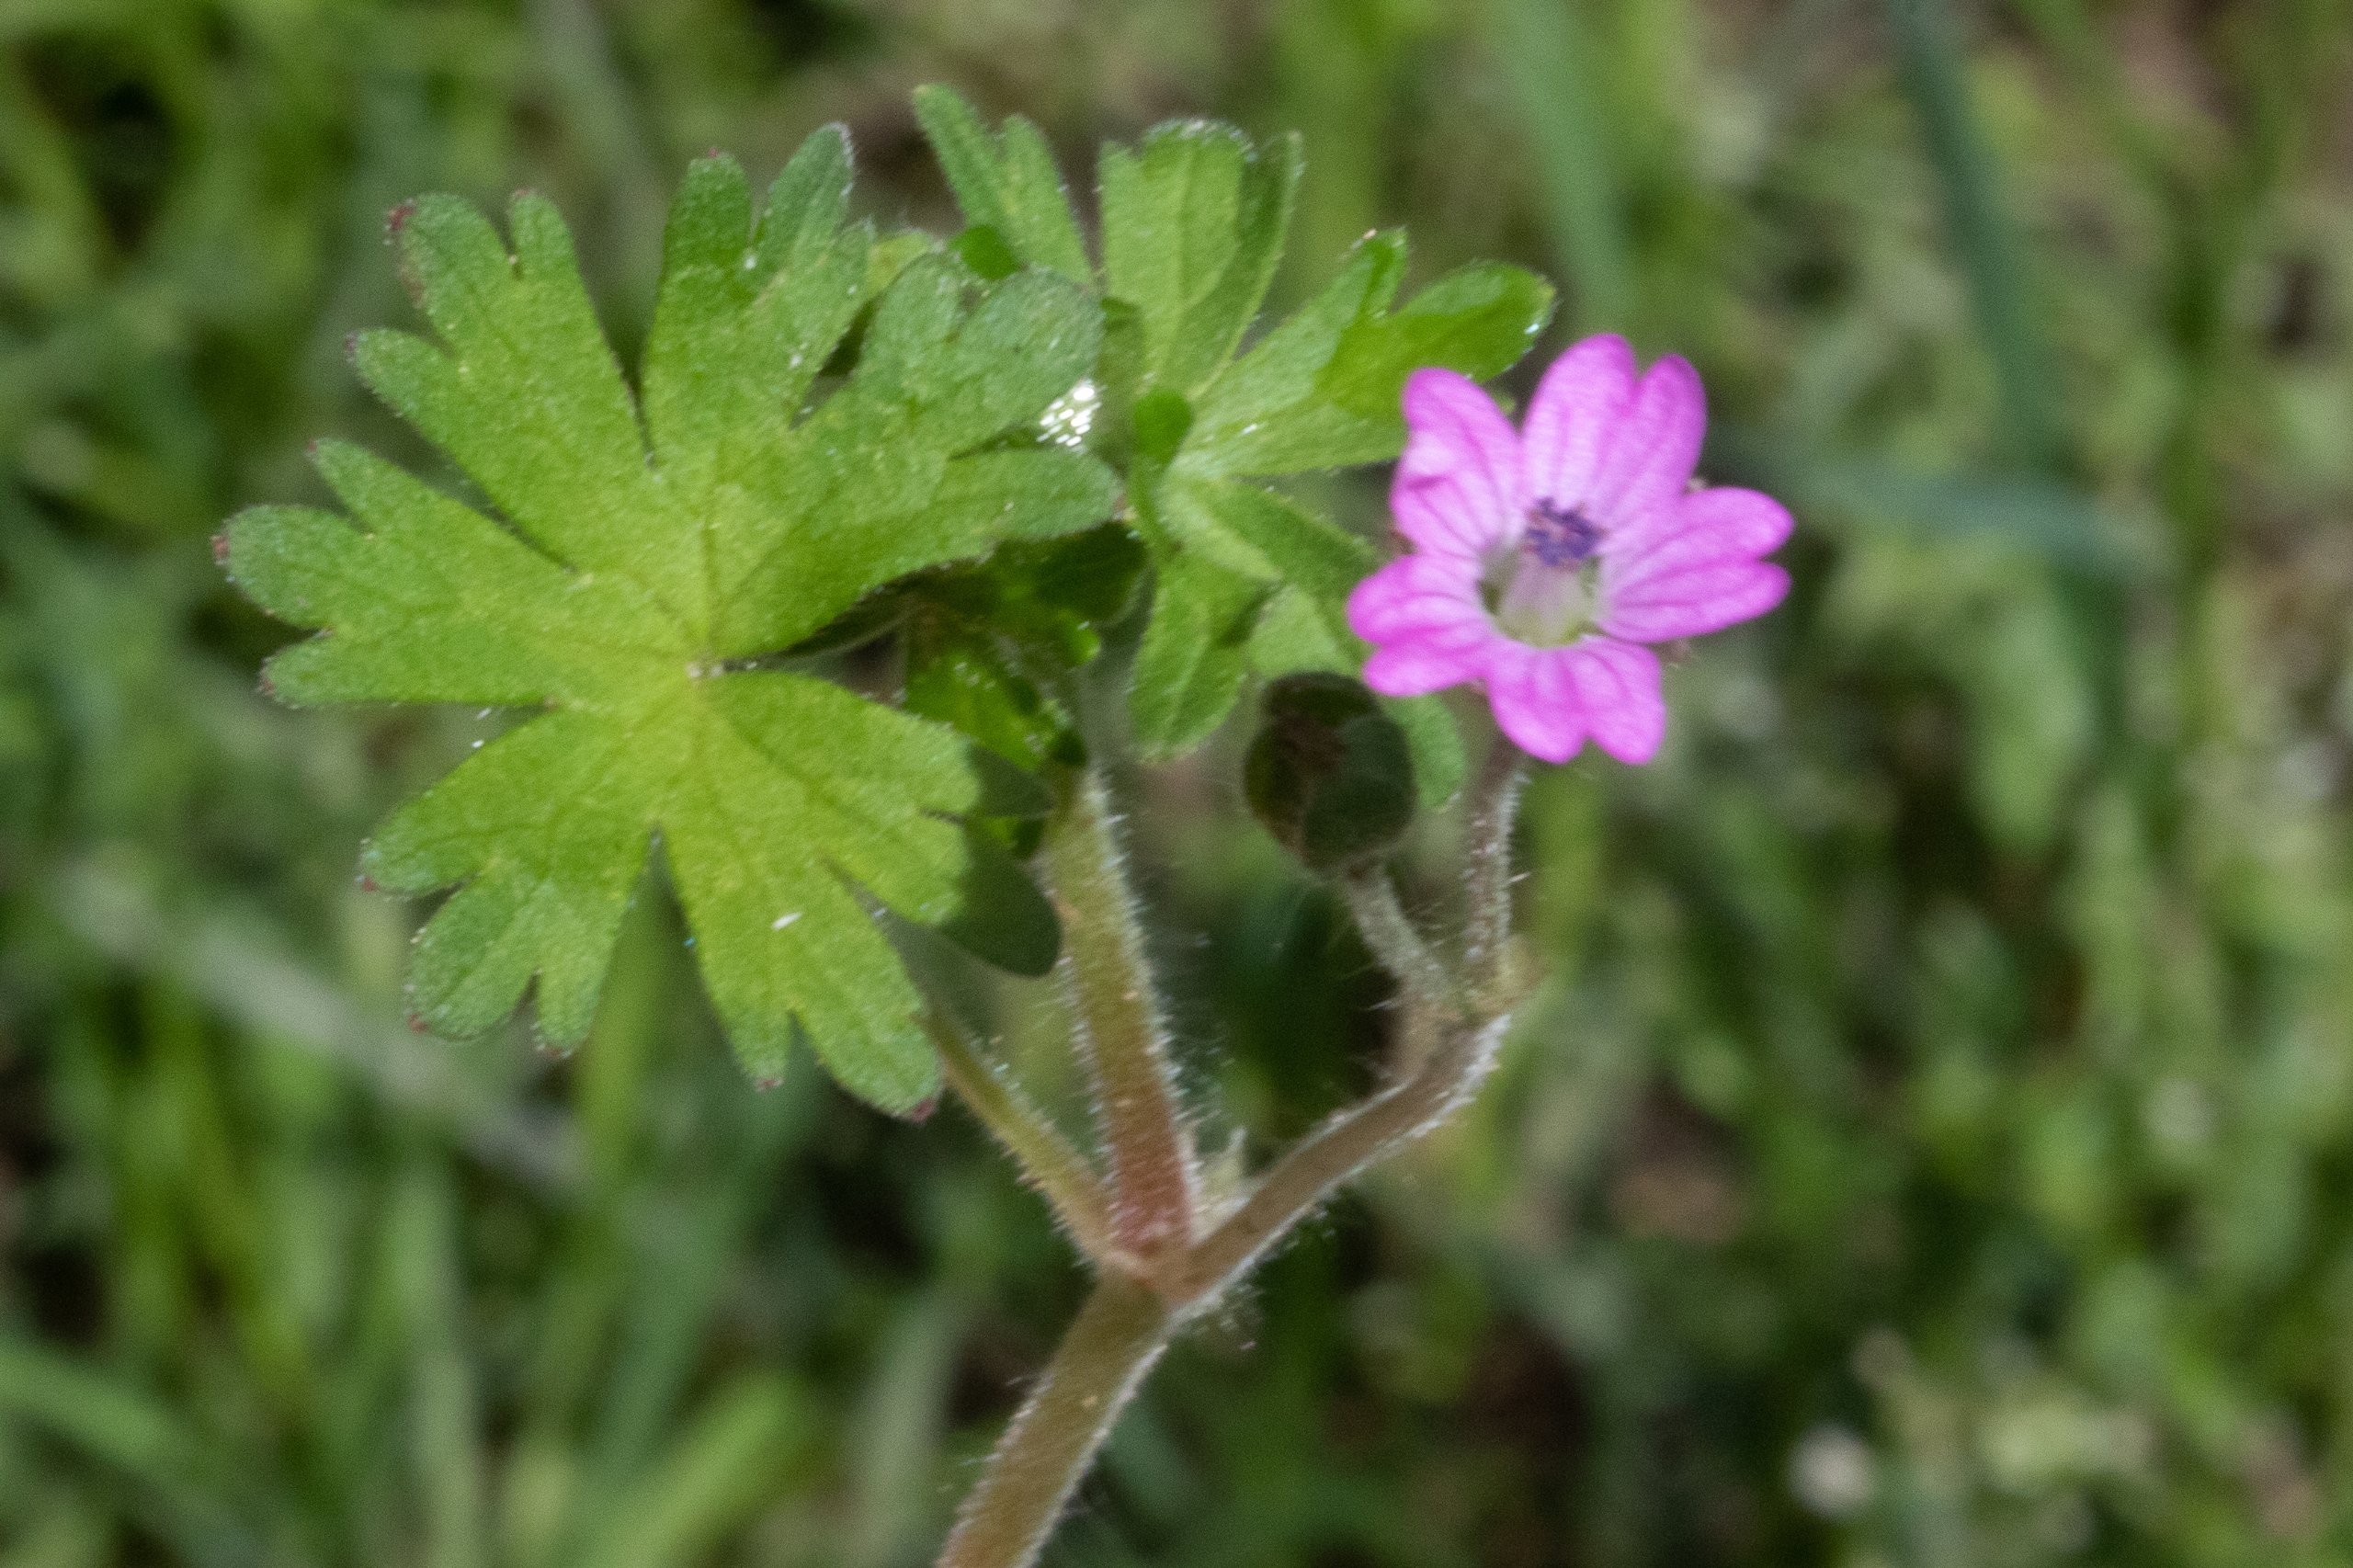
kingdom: Plantae
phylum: Tracheophyta
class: Magnoliopsida
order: Geraniales
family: Geraniaceae
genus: Geranium
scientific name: Geranium molle
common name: Blød storkenæb
